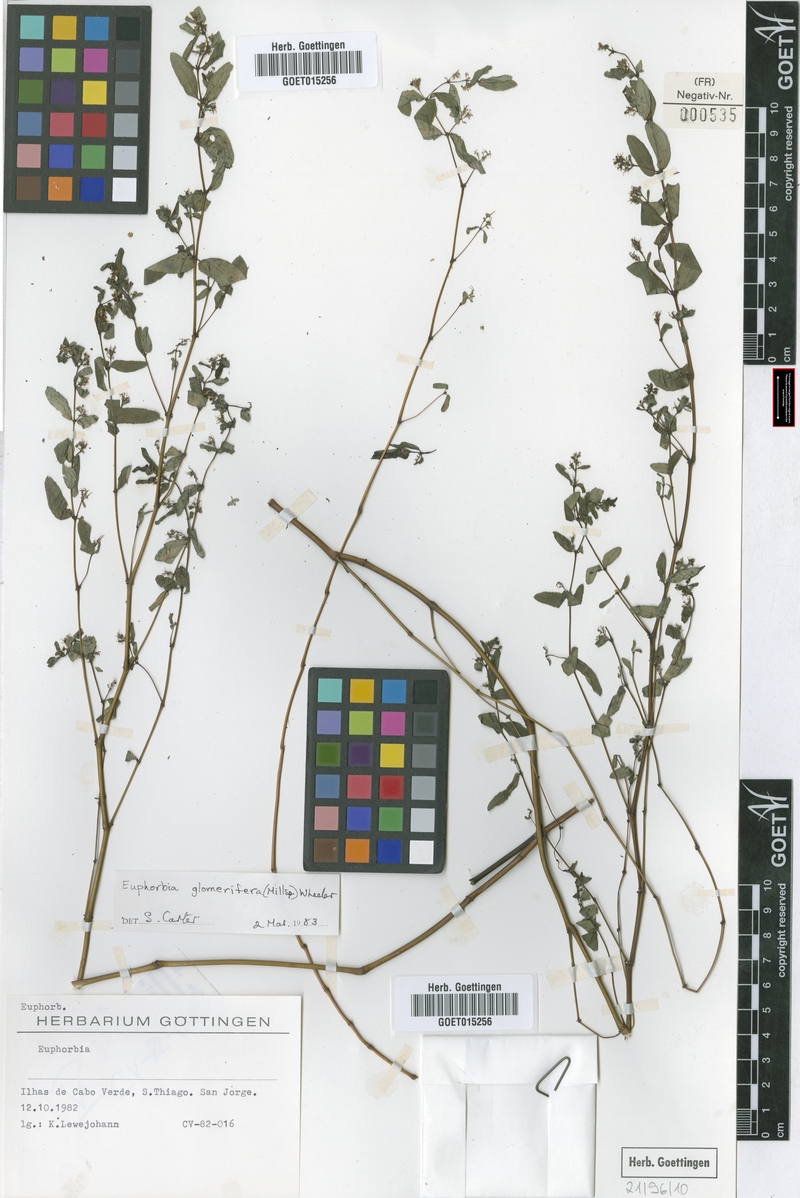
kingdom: Plantae
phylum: Tracheophyta
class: Magnoliopsida
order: Malpighiales
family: Euphorbiaceae
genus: Euphorbia
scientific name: Euphorbia hypericifolia
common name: Graceful sandmat
